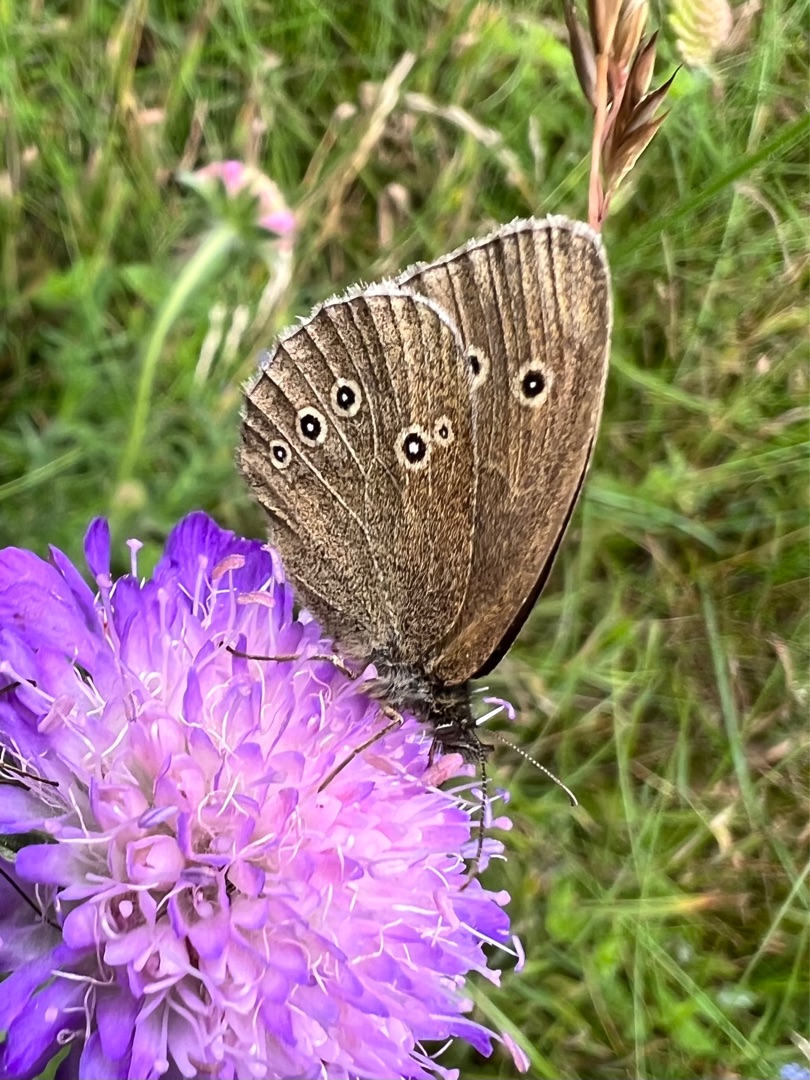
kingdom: Animalia
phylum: Arthropoda
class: Insecta
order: Lepidoptera
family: Nymphalidae
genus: Aphantopus
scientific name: Aphantopus hyperantus
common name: Engrandøje
